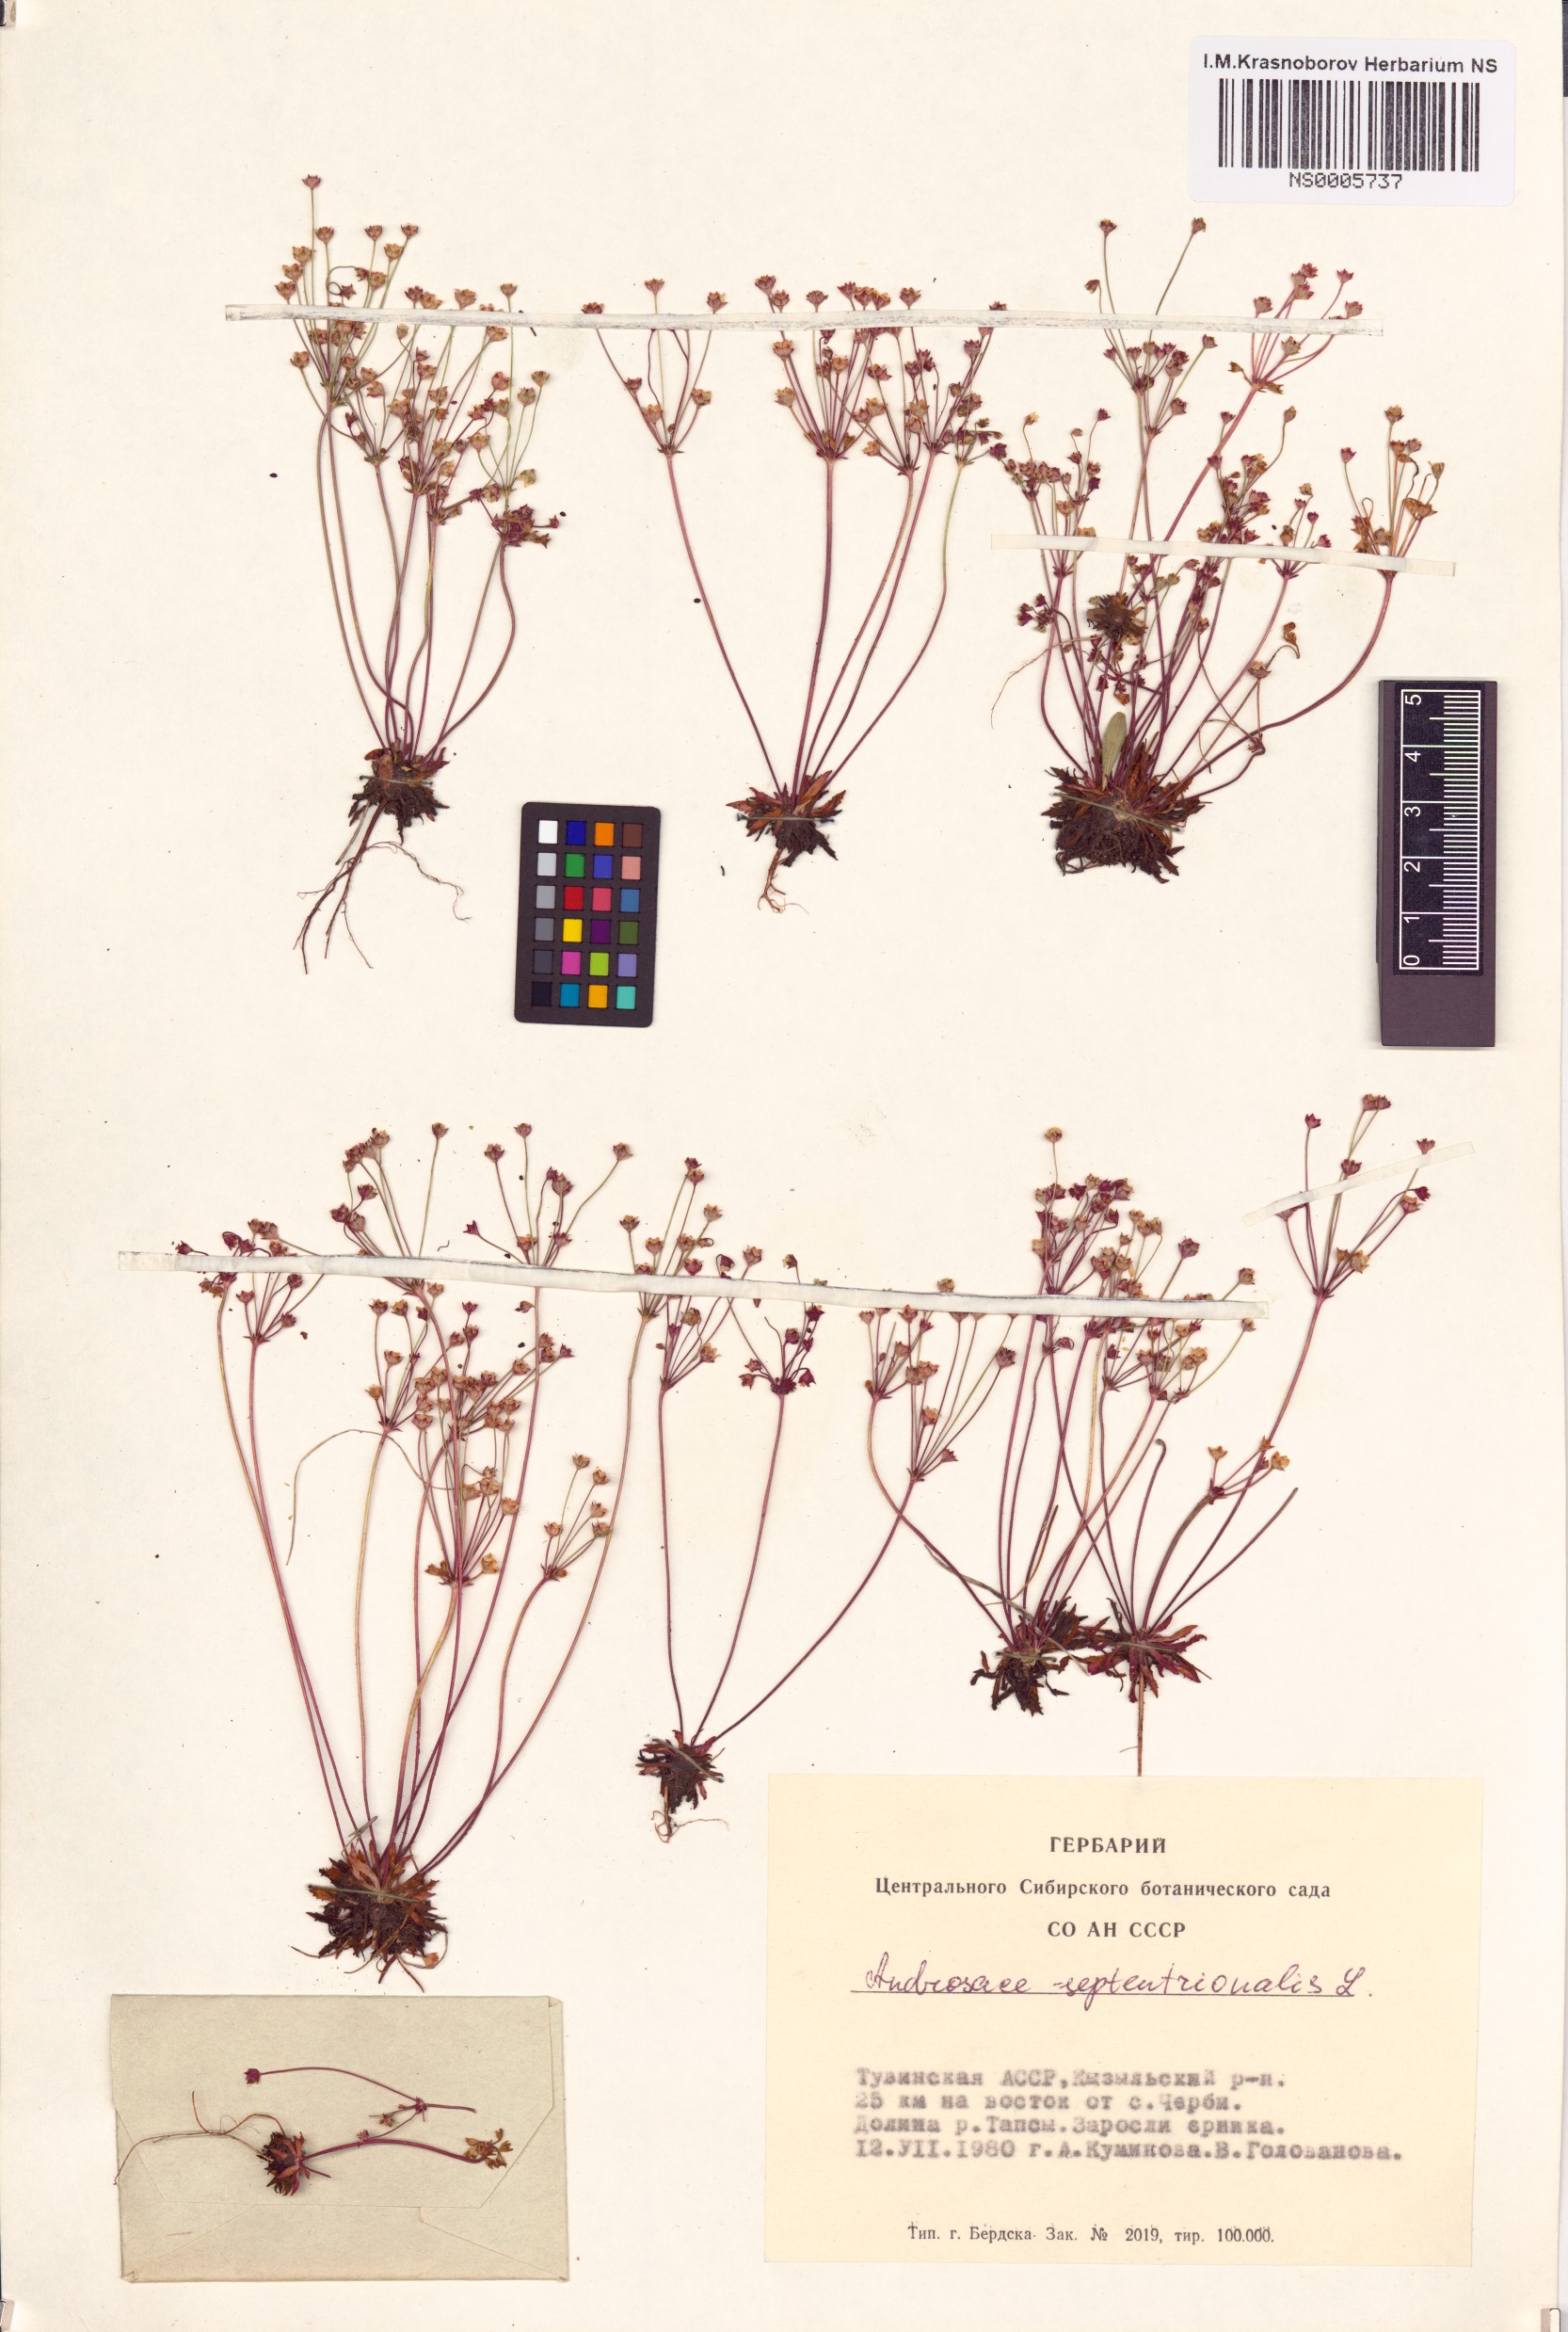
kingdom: Plantae
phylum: Tracheophyta
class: Magnoliopsida
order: Ericales
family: Primulaceae
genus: Androsace
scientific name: Androsace septentrionalis
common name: Hairy northern fairy-candelabra
